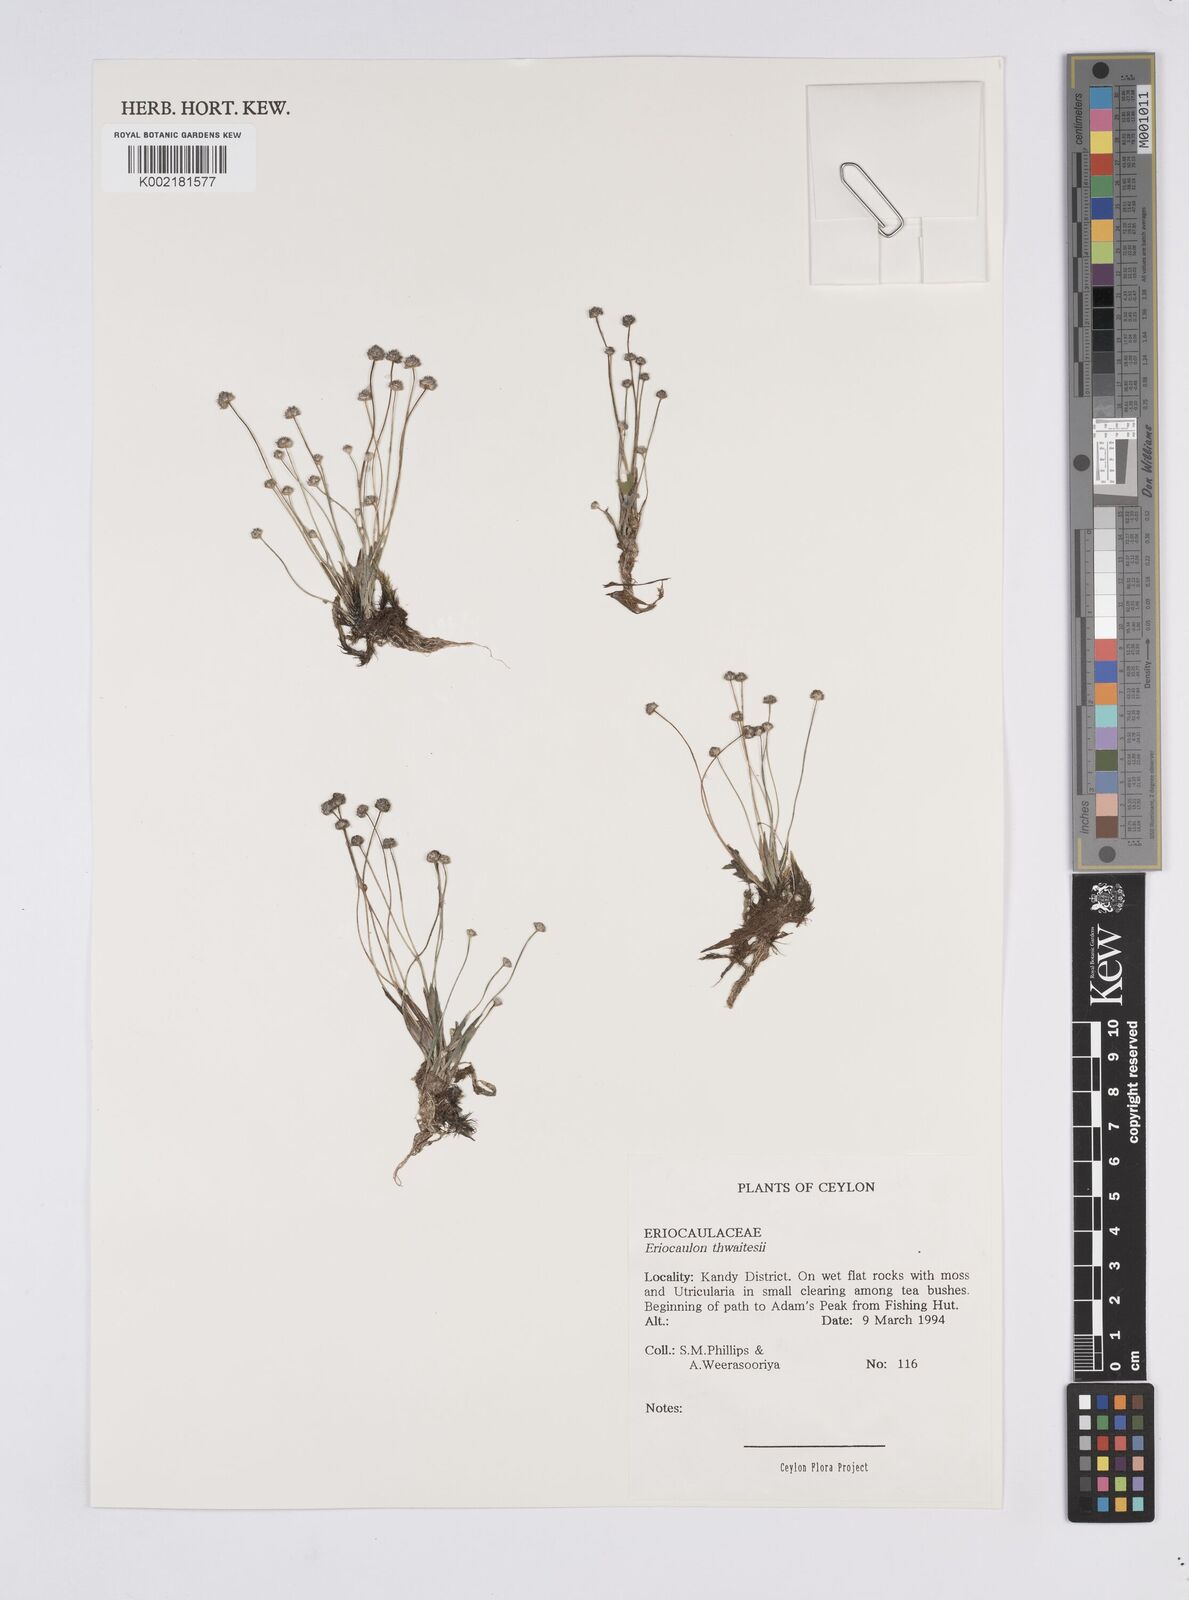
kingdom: Plantae
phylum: Tracheophyta
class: Liliopsida
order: Poales
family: Eriocaulaceae
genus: Eriocaulon
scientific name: Eriocaulon thwaitesii
